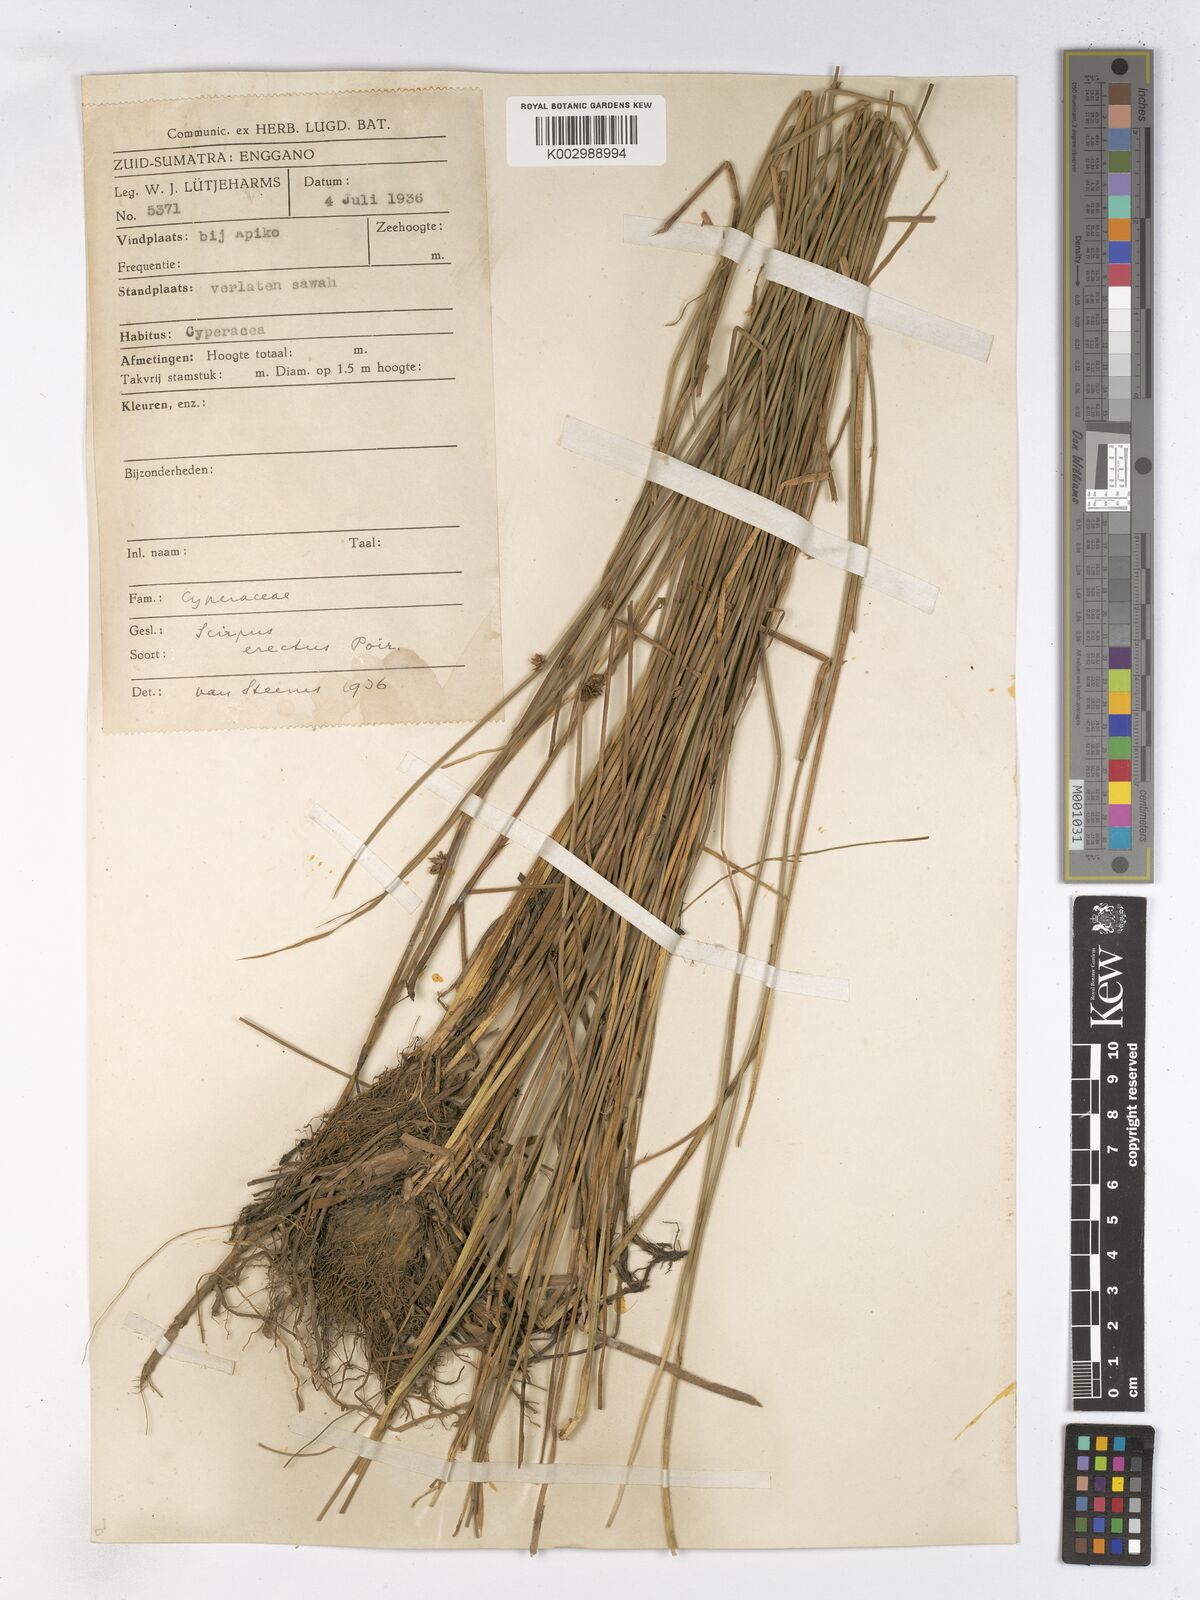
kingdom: Plantae
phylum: Tracheophyta
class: Liliopsida
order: Poales
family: Cyperaceae
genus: Schoenoplectiella
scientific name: Schoenoplectiella juncoides
